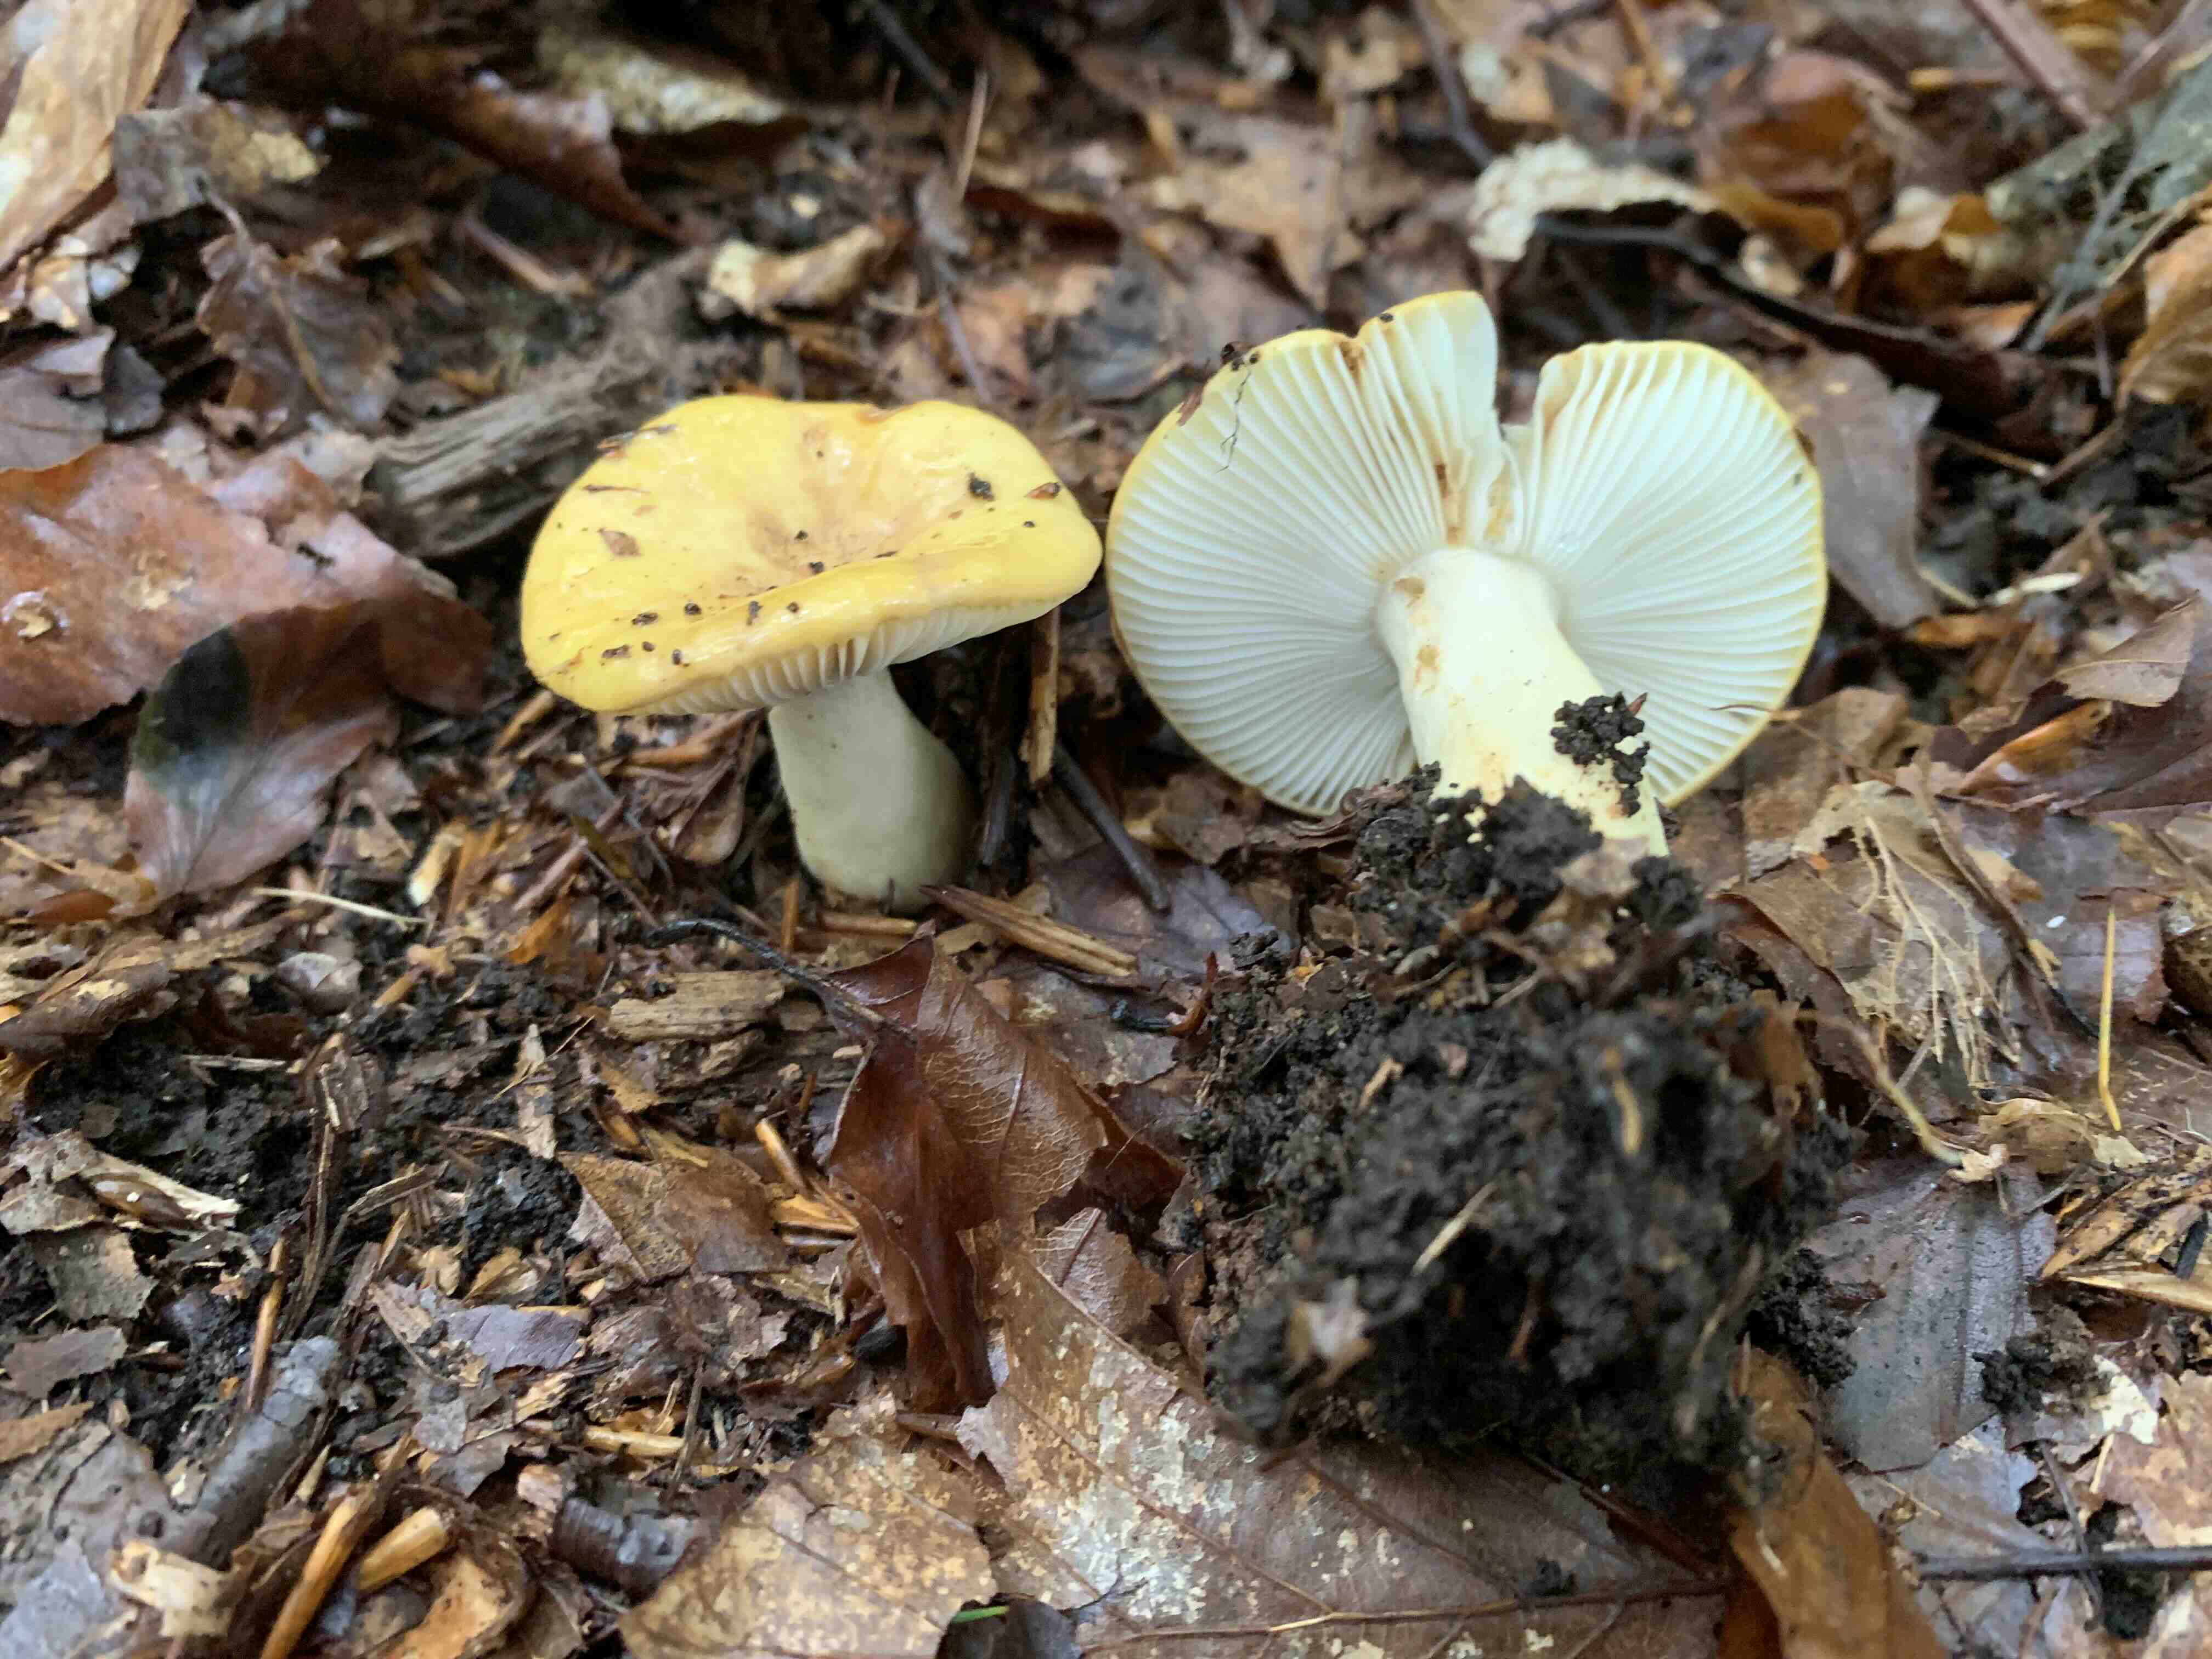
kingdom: Fungi
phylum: Basidiomycota
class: Agaricomycetes
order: Russulales
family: Russulaceae
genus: Russula
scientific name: Russula ochroleuca
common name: okkergul skørhat
